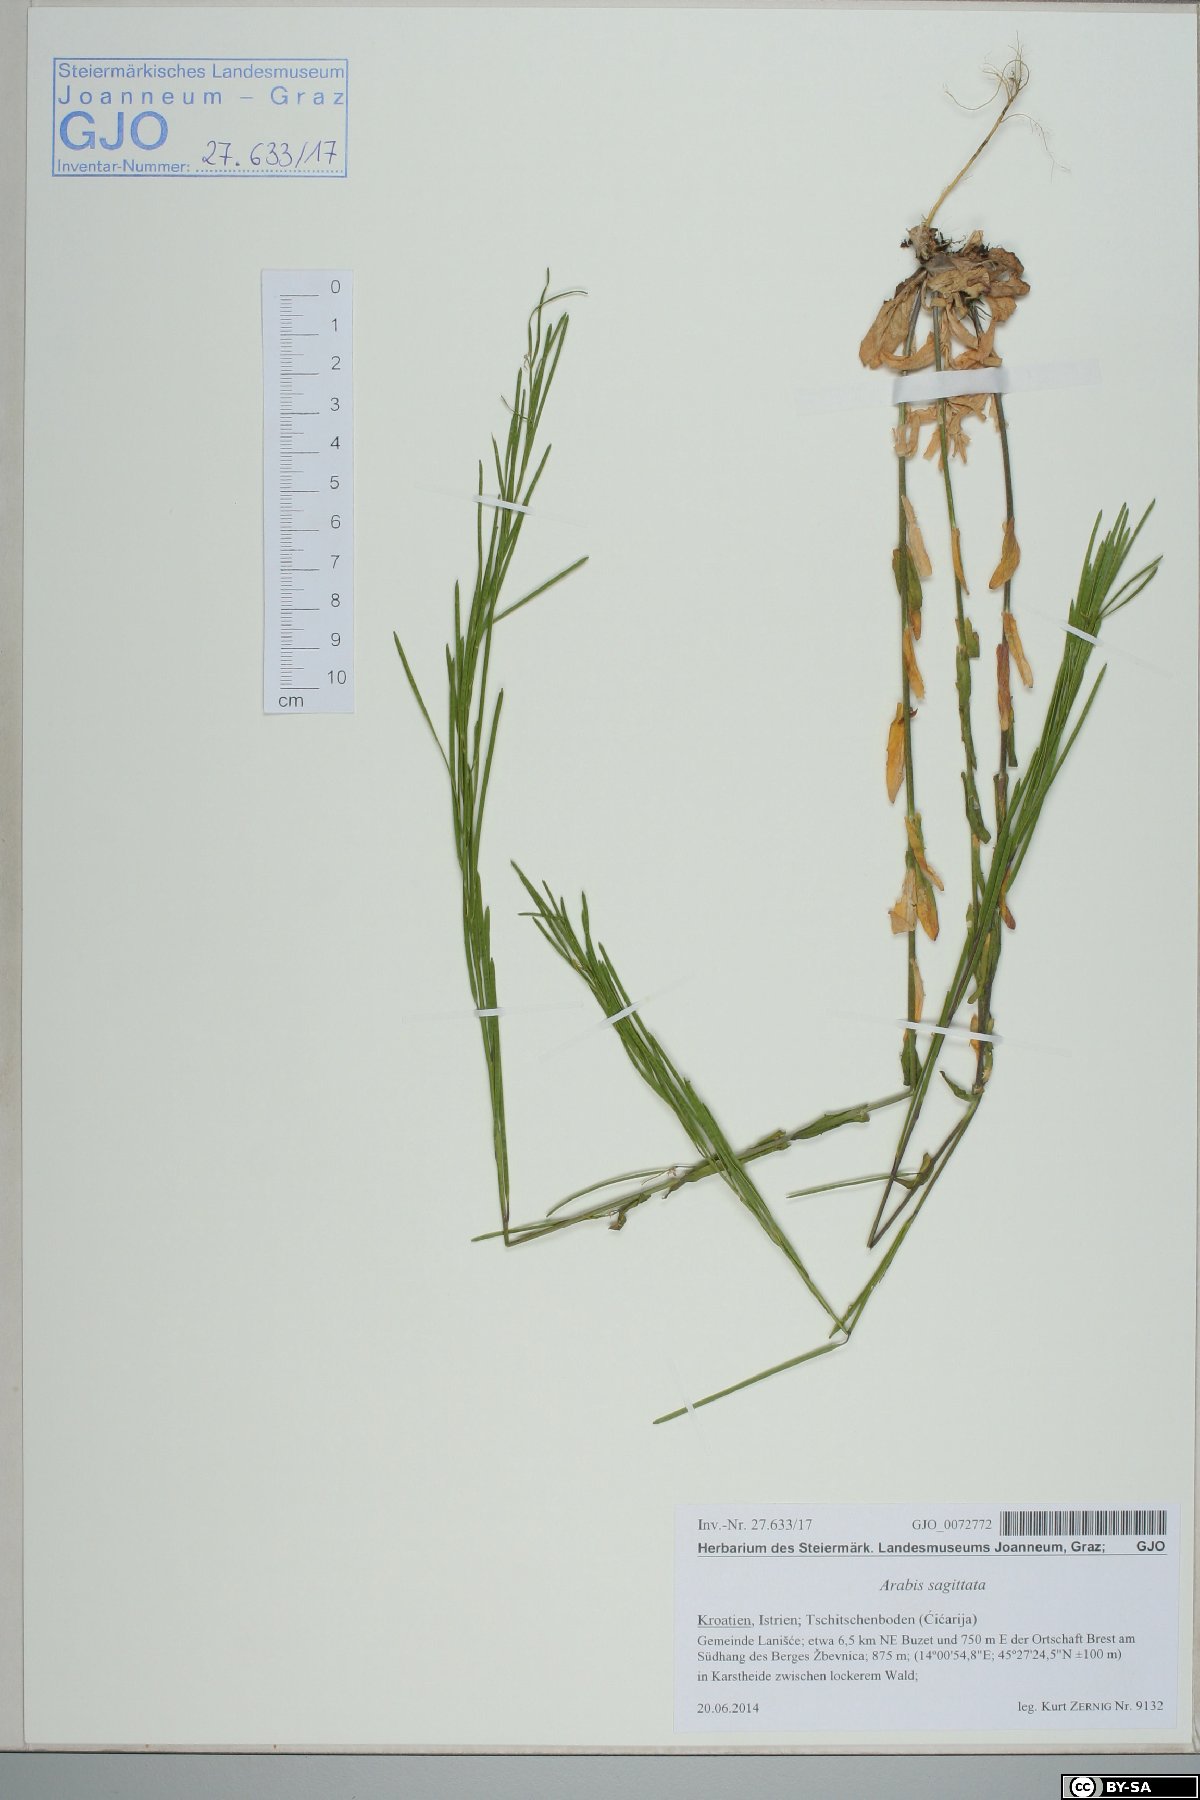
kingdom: Plantae
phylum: Tracheophyta
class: Magnoliopsida
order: Brassicales
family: Brassicaceae
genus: Arabis
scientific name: Arabis sagittata
